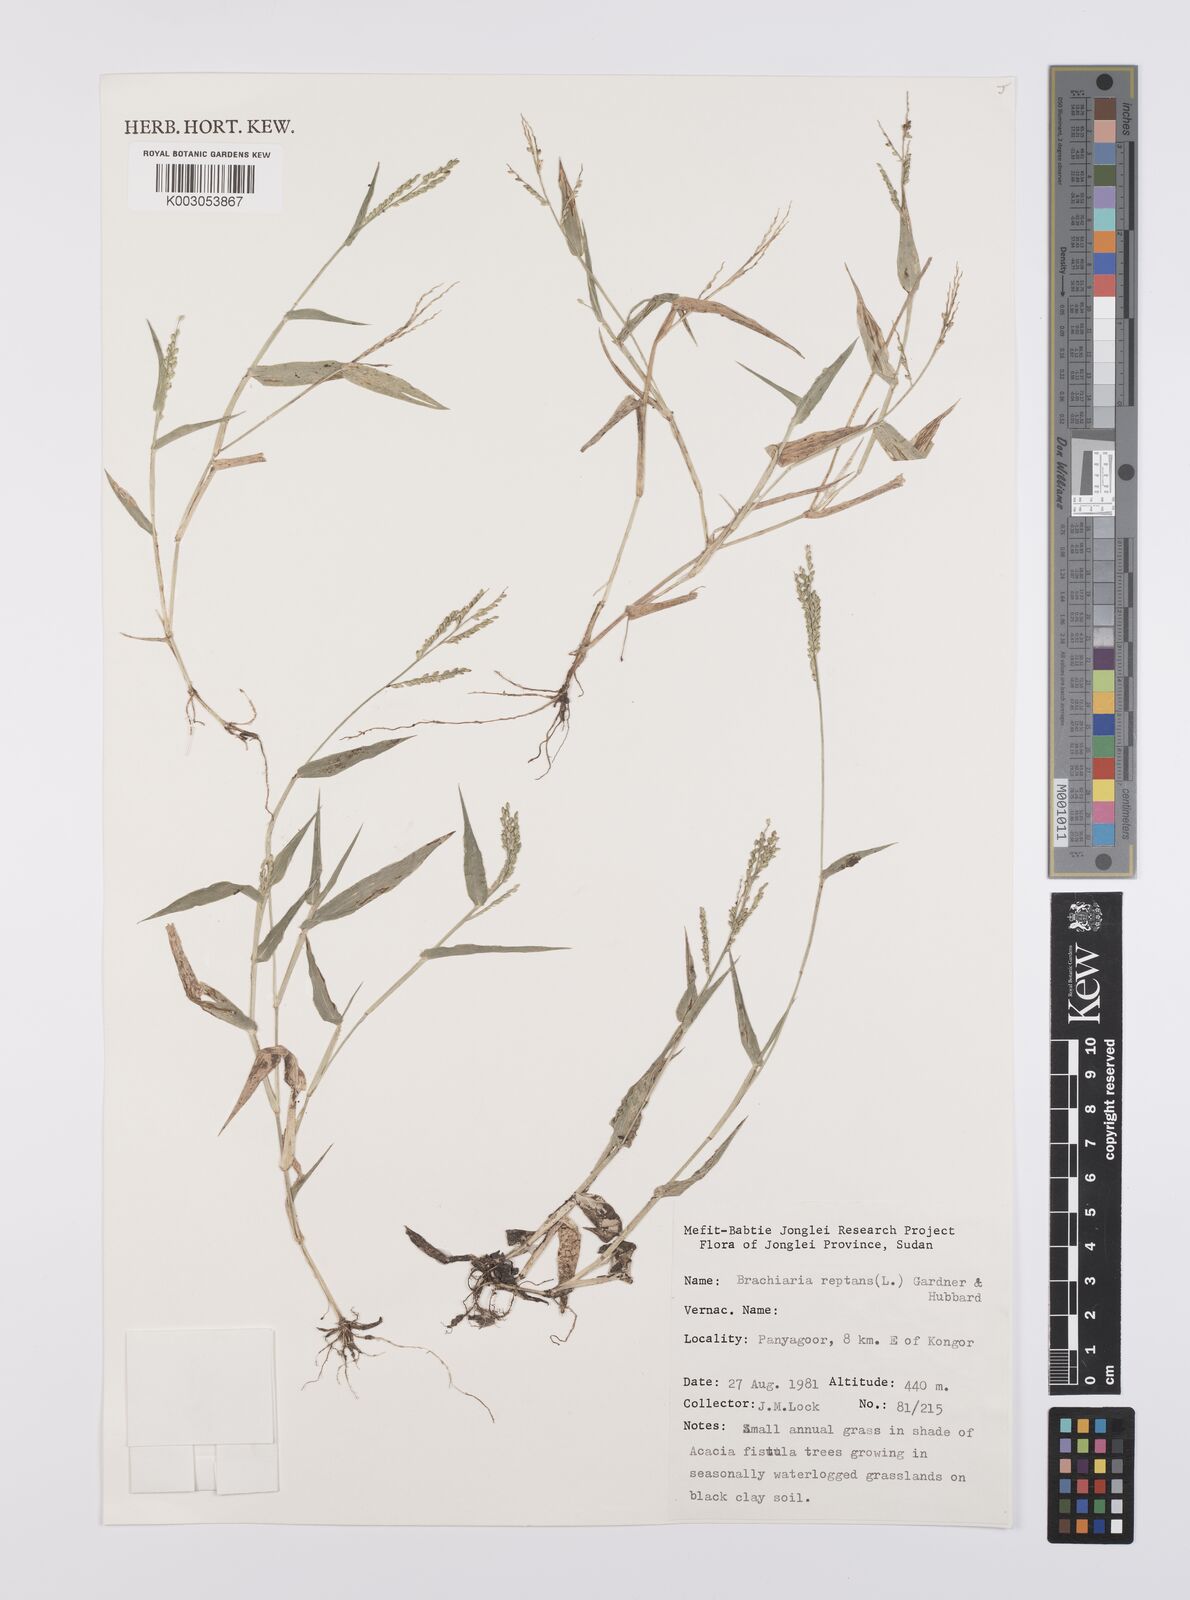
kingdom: Plantae
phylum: Tracheophyta
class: Liliopsida
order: Poales
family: Poaceae
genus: Urochloa
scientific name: Urochloa reptans
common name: Sprawling signalgrass
